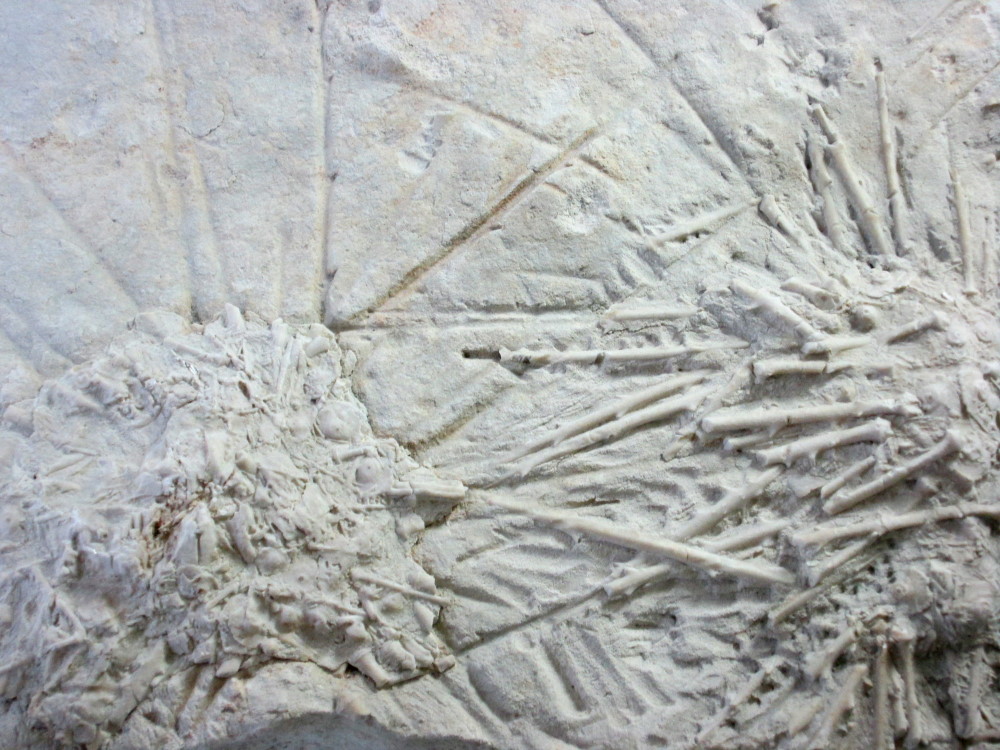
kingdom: Animalia
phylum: Echinodermata
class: Echinoidea
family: Archaeocidaridae
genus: Archaeocidaris
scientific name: Archaeocidaris mosquensis
